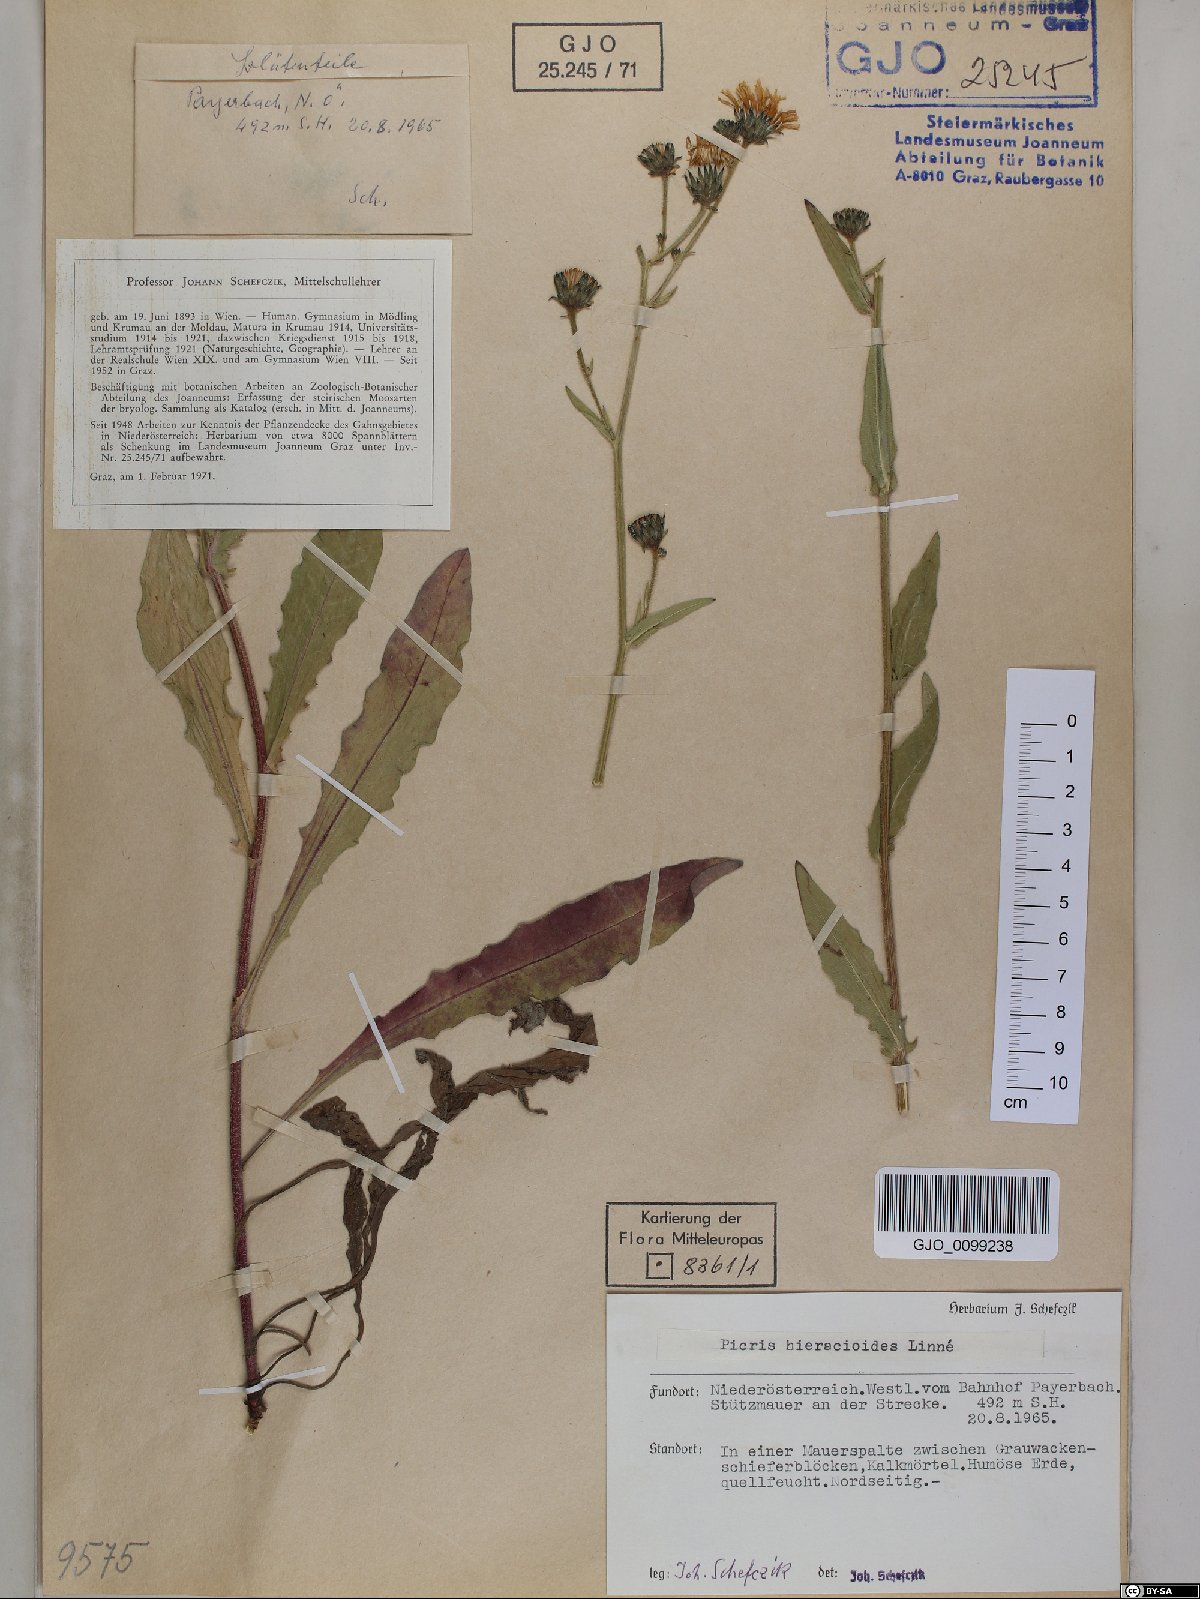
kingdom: Plantae
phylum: Tracheophyta
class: Magnoliopsida
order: Asterales
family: Asteraceae
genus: Picris
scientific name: Picris hieracioides
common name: Hawkweed oxtongue
